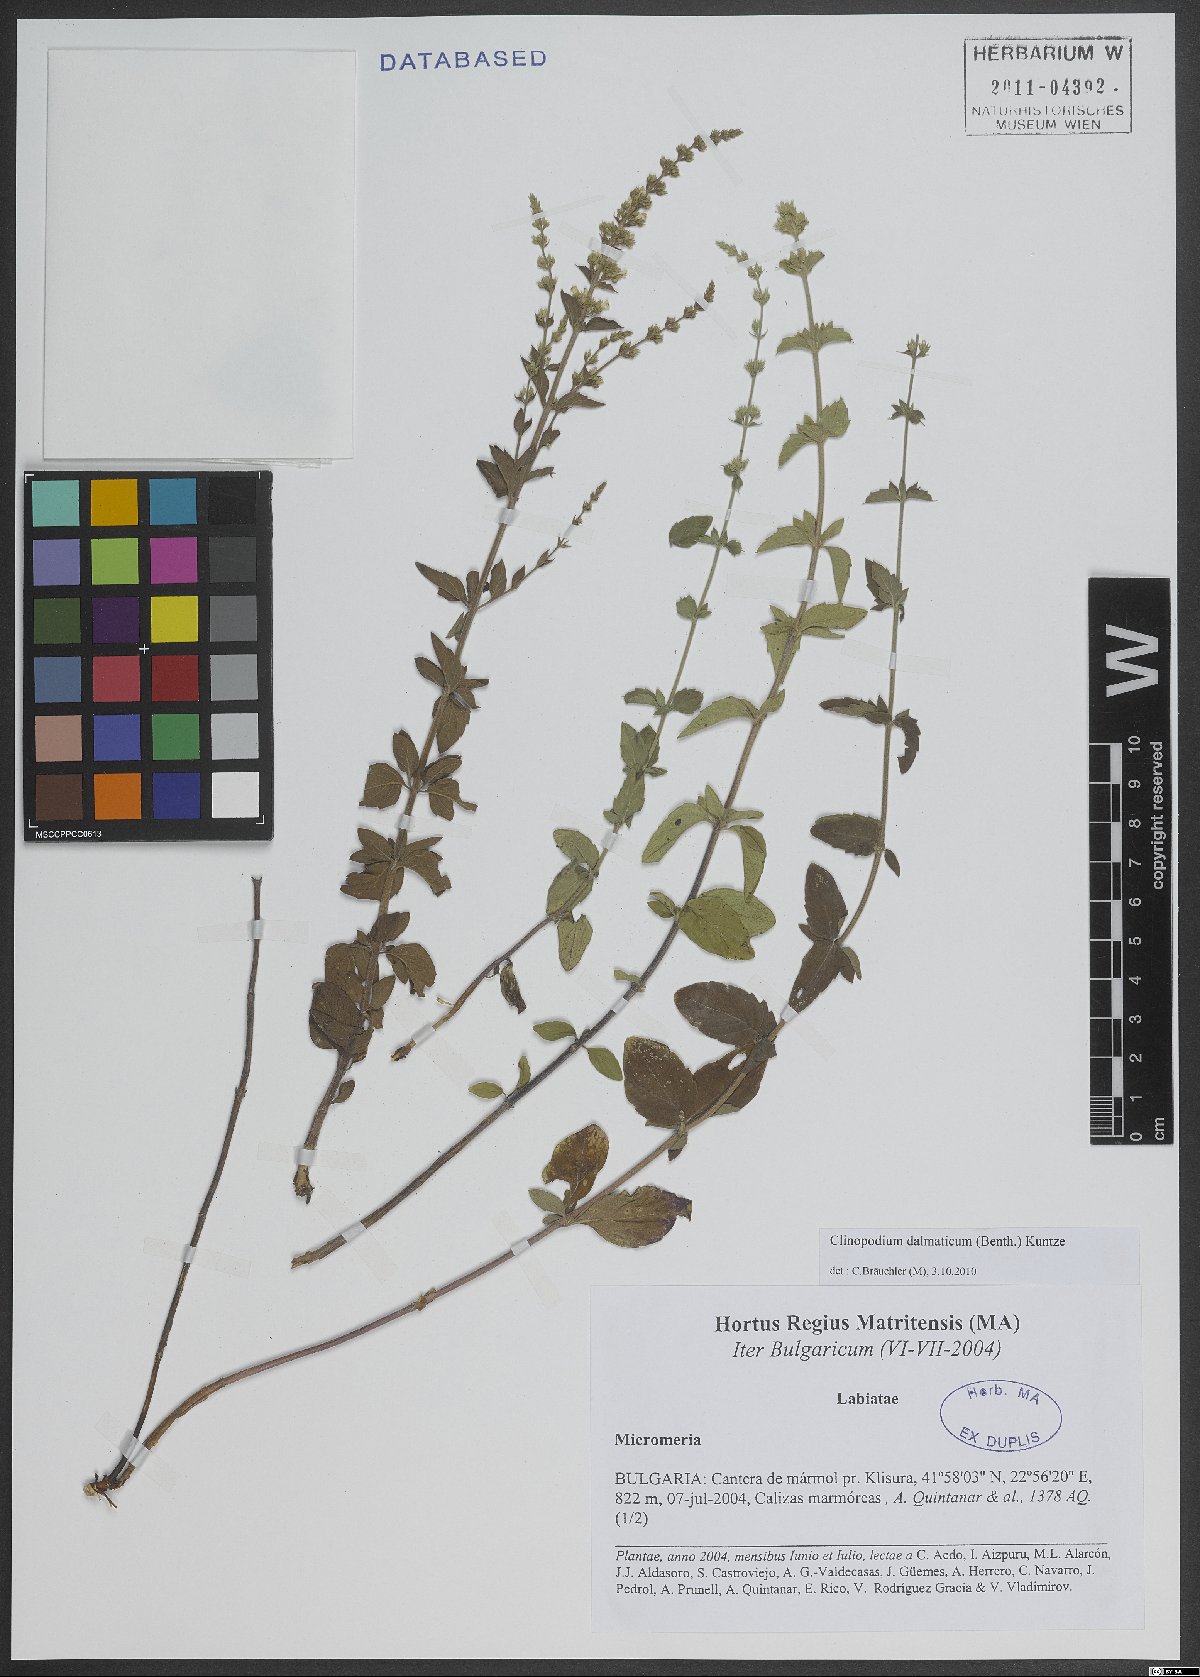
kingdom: Plantae
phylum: Tracheophyta
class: Magnoliopsida
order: Lamiales
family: Lamiaceae
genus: Clinopodium
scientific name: Clinopodium dalmaticum
